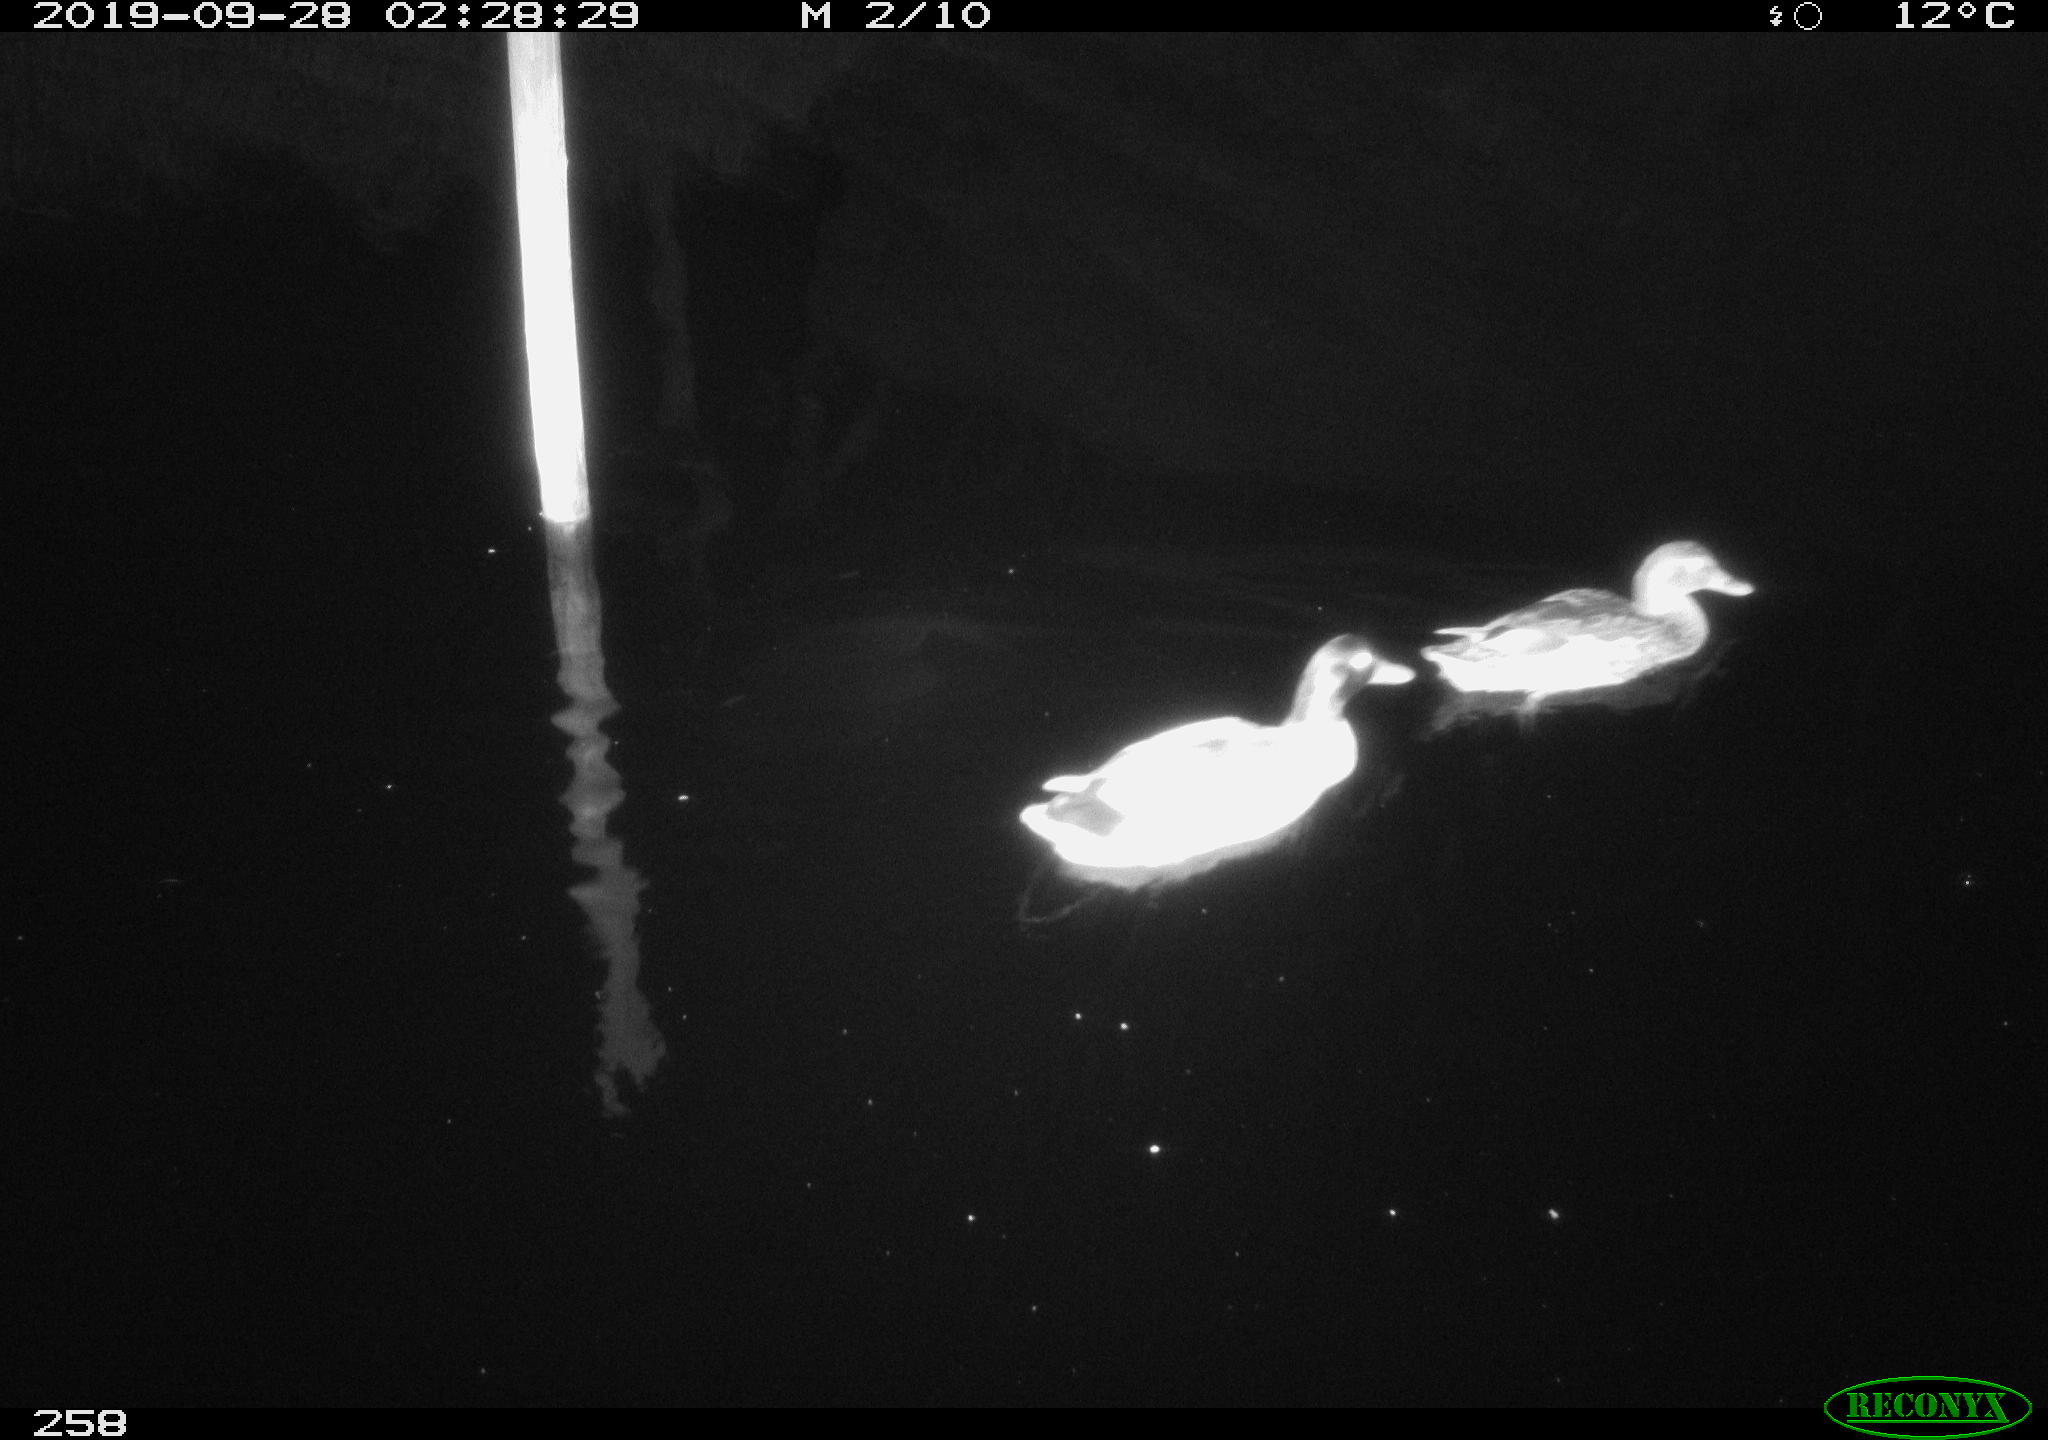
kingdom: Animalia
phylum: Chordata
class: Aves
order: Anseriformes
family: Anatidae
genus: Anas
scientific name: Anas platyrhynchos
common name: Mallard
